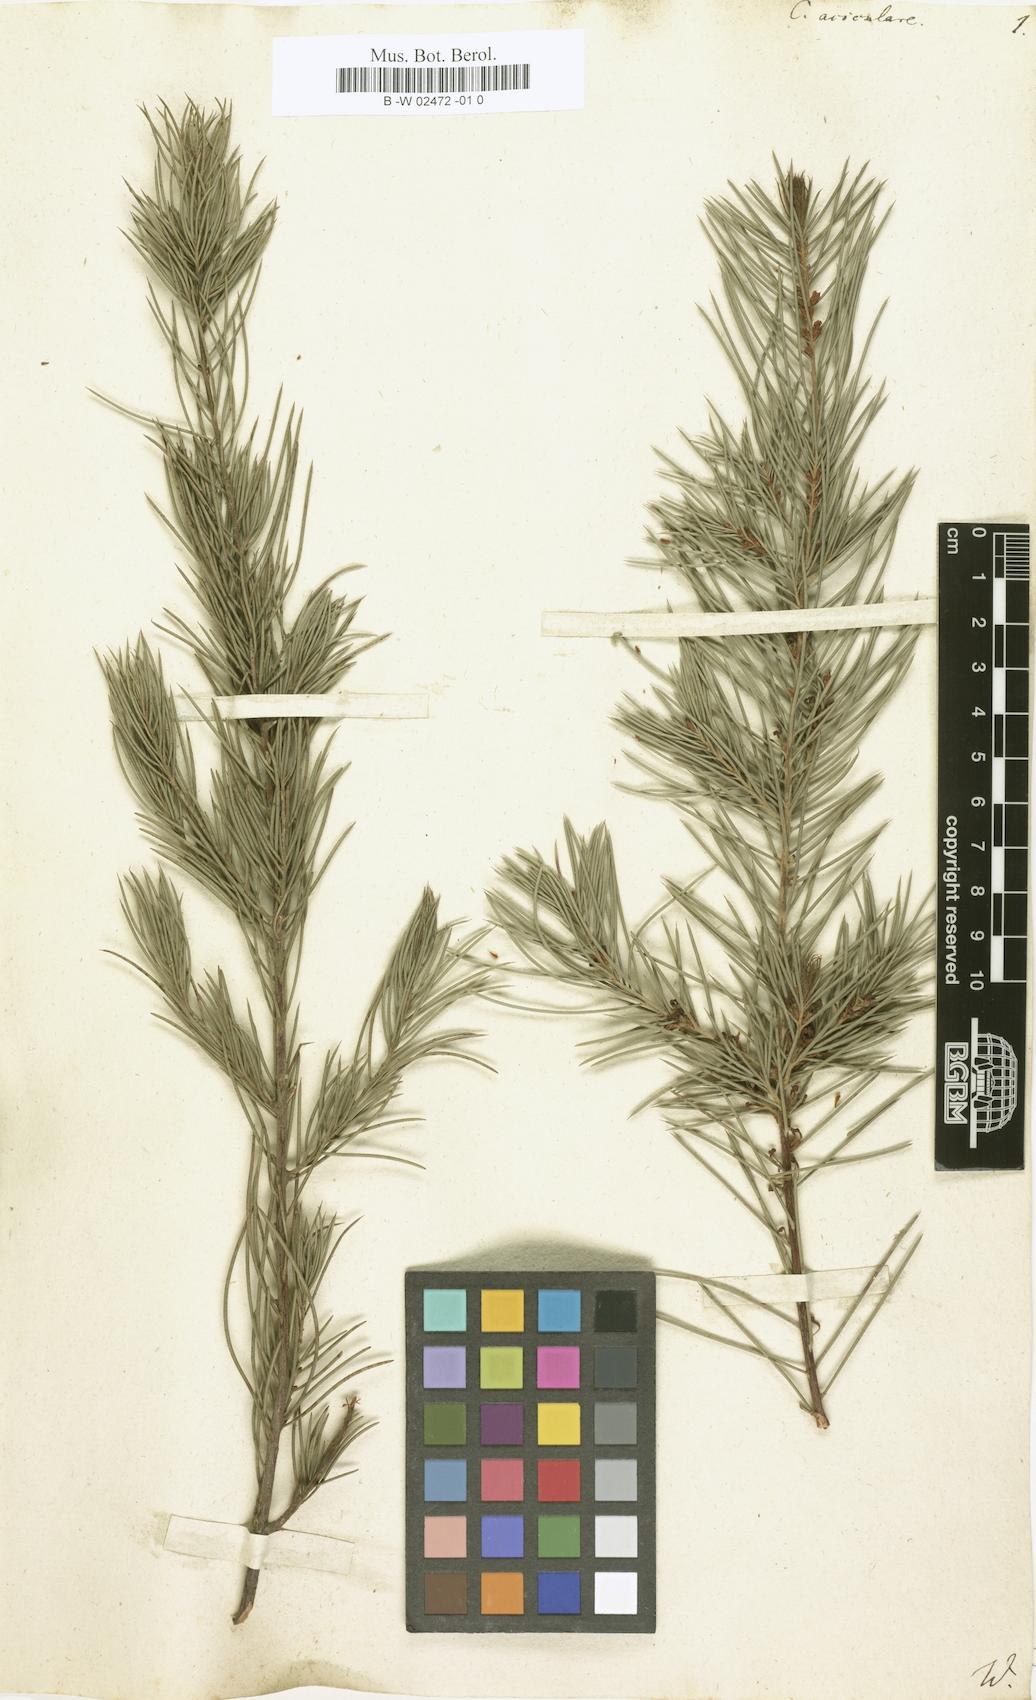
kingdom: Plantae
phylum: Tracheophyta
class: Magnoliopsida
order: Proteales
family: Proteaceae
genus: Hakea
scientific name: Hakea sericea
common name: Needle bush
